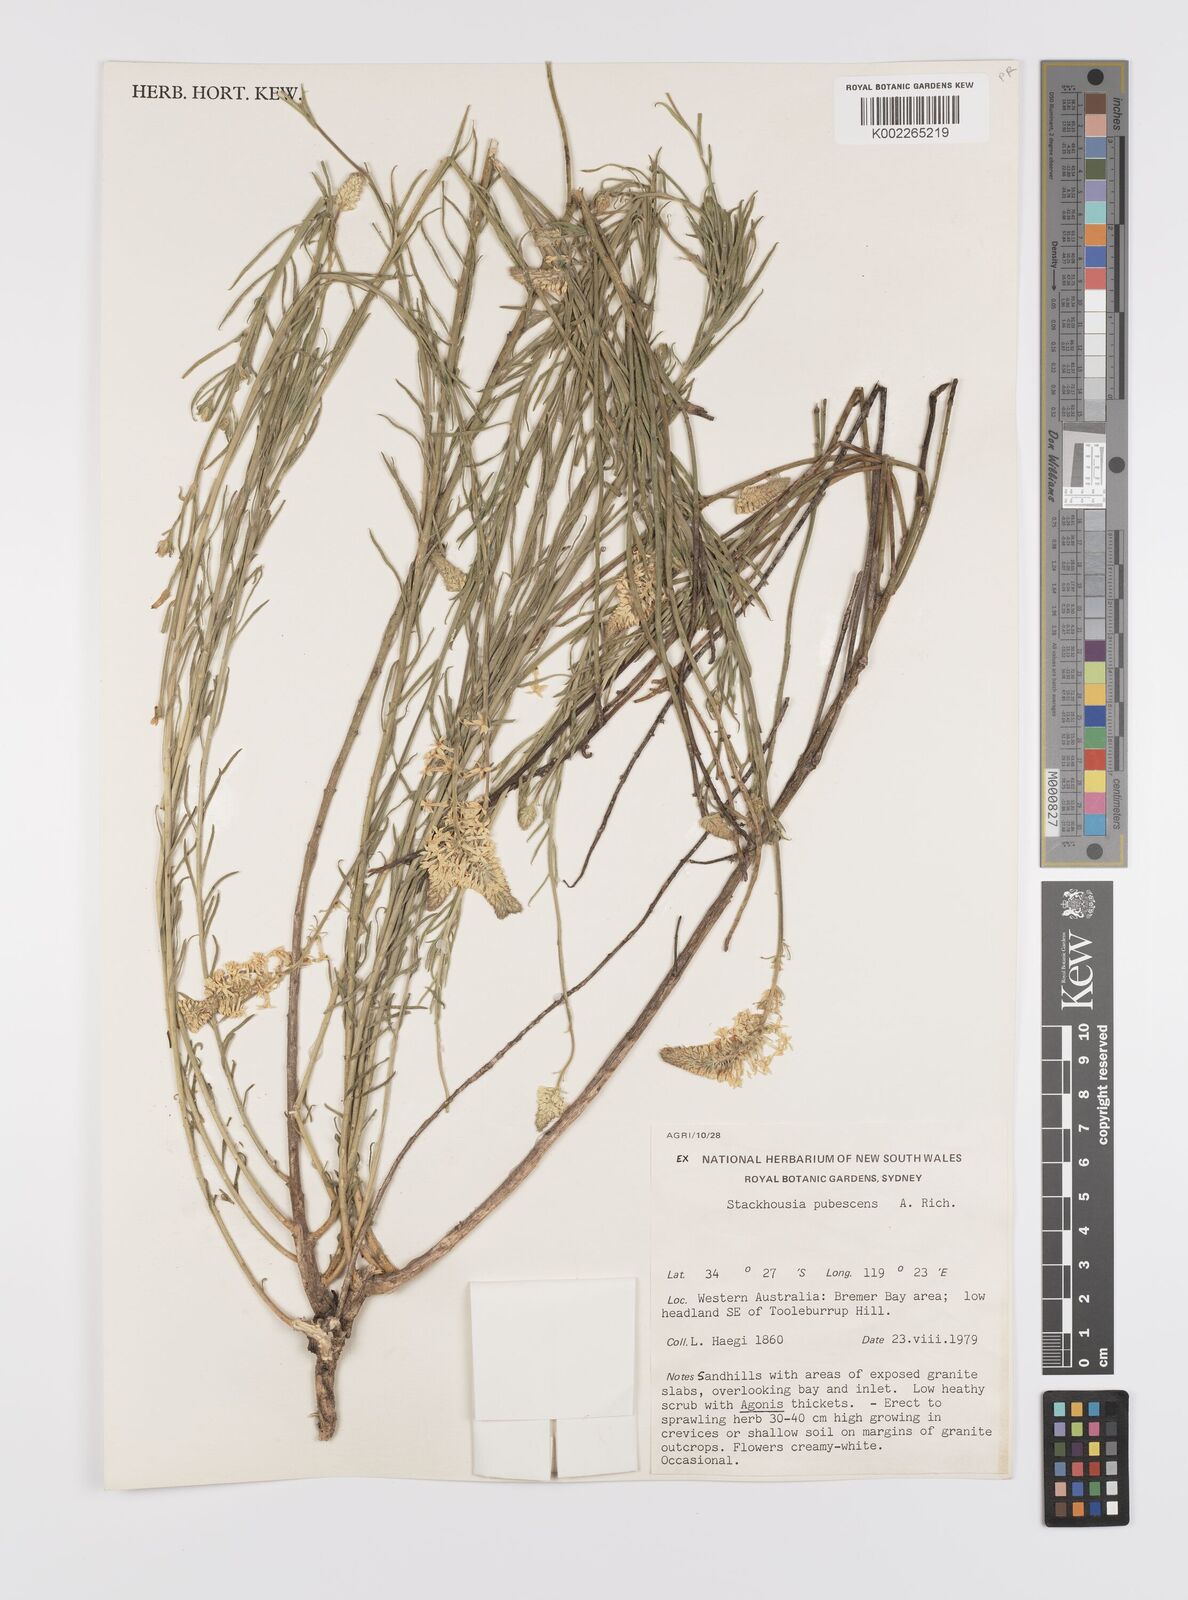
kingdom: Plantae
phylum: Tracheophyta
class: Magnoliopsida
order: Celastrales
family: Celastraceae
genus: Stackhousia
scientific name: Stackhousia monogyna
